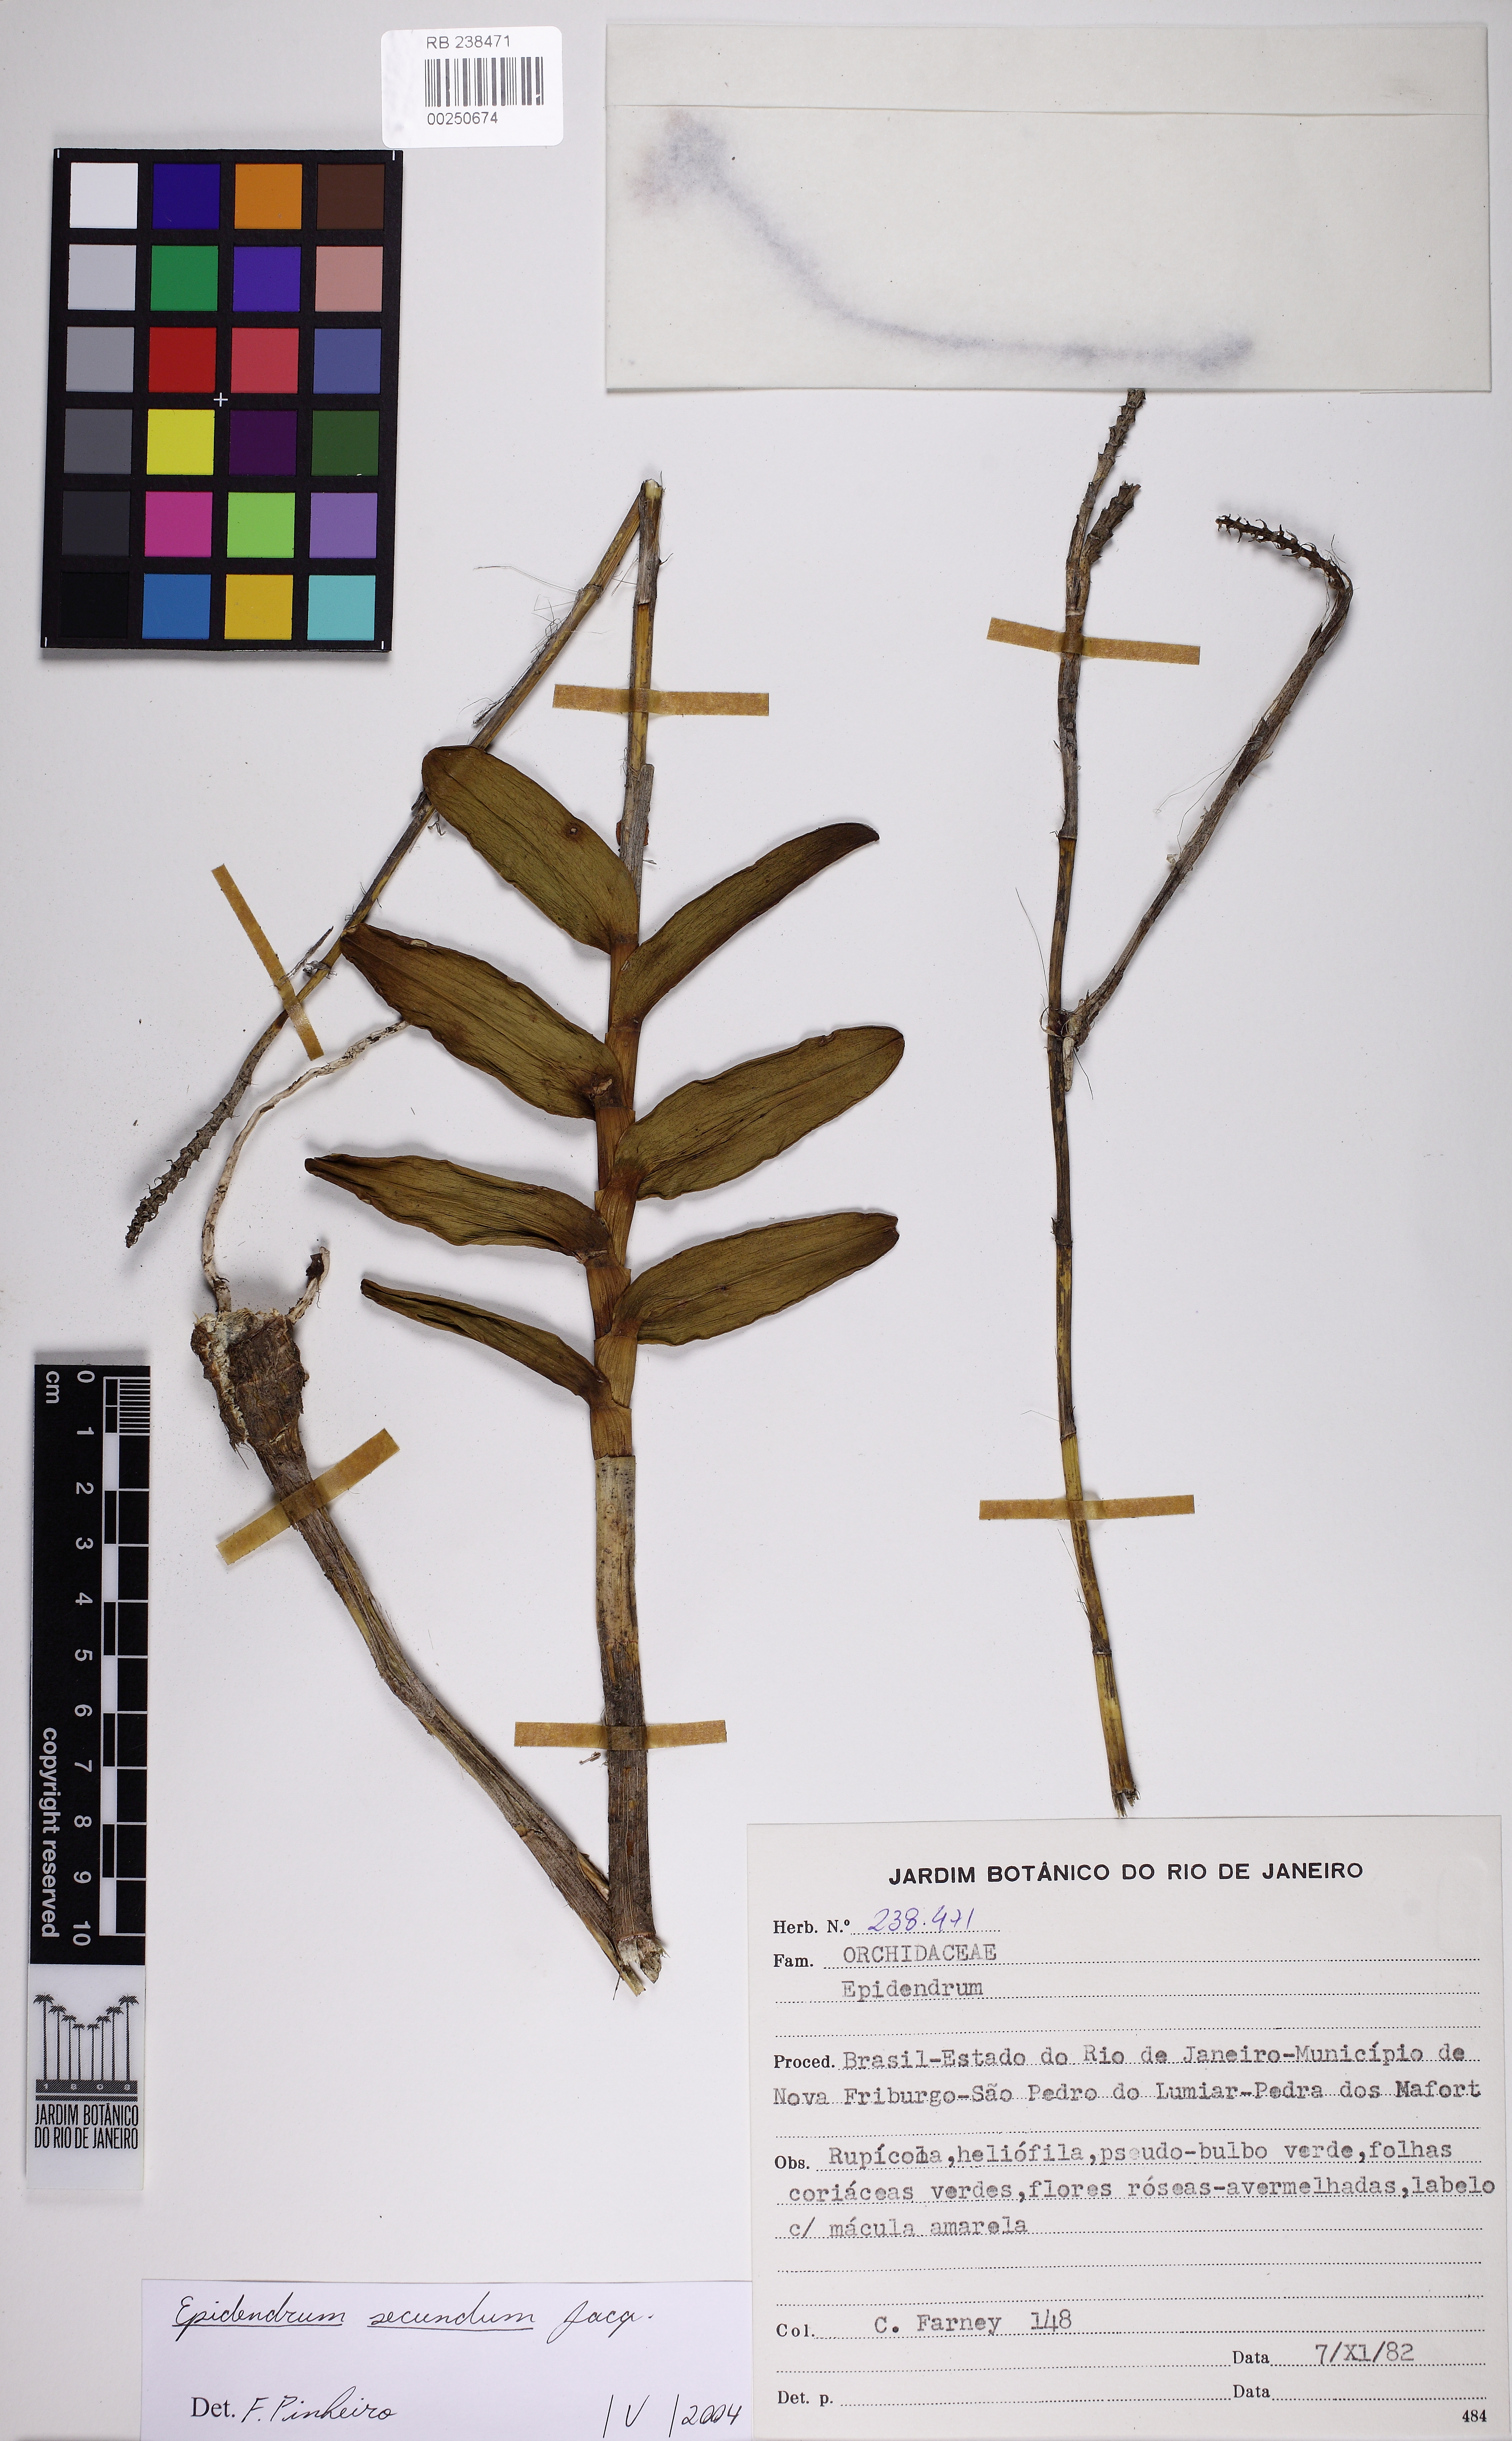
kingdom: Plantae
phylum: Tracheophyta
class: Liliopsida
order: Asparagales
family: Orchidaceae
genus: Epidendrum
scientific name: Epidendrum secundum
